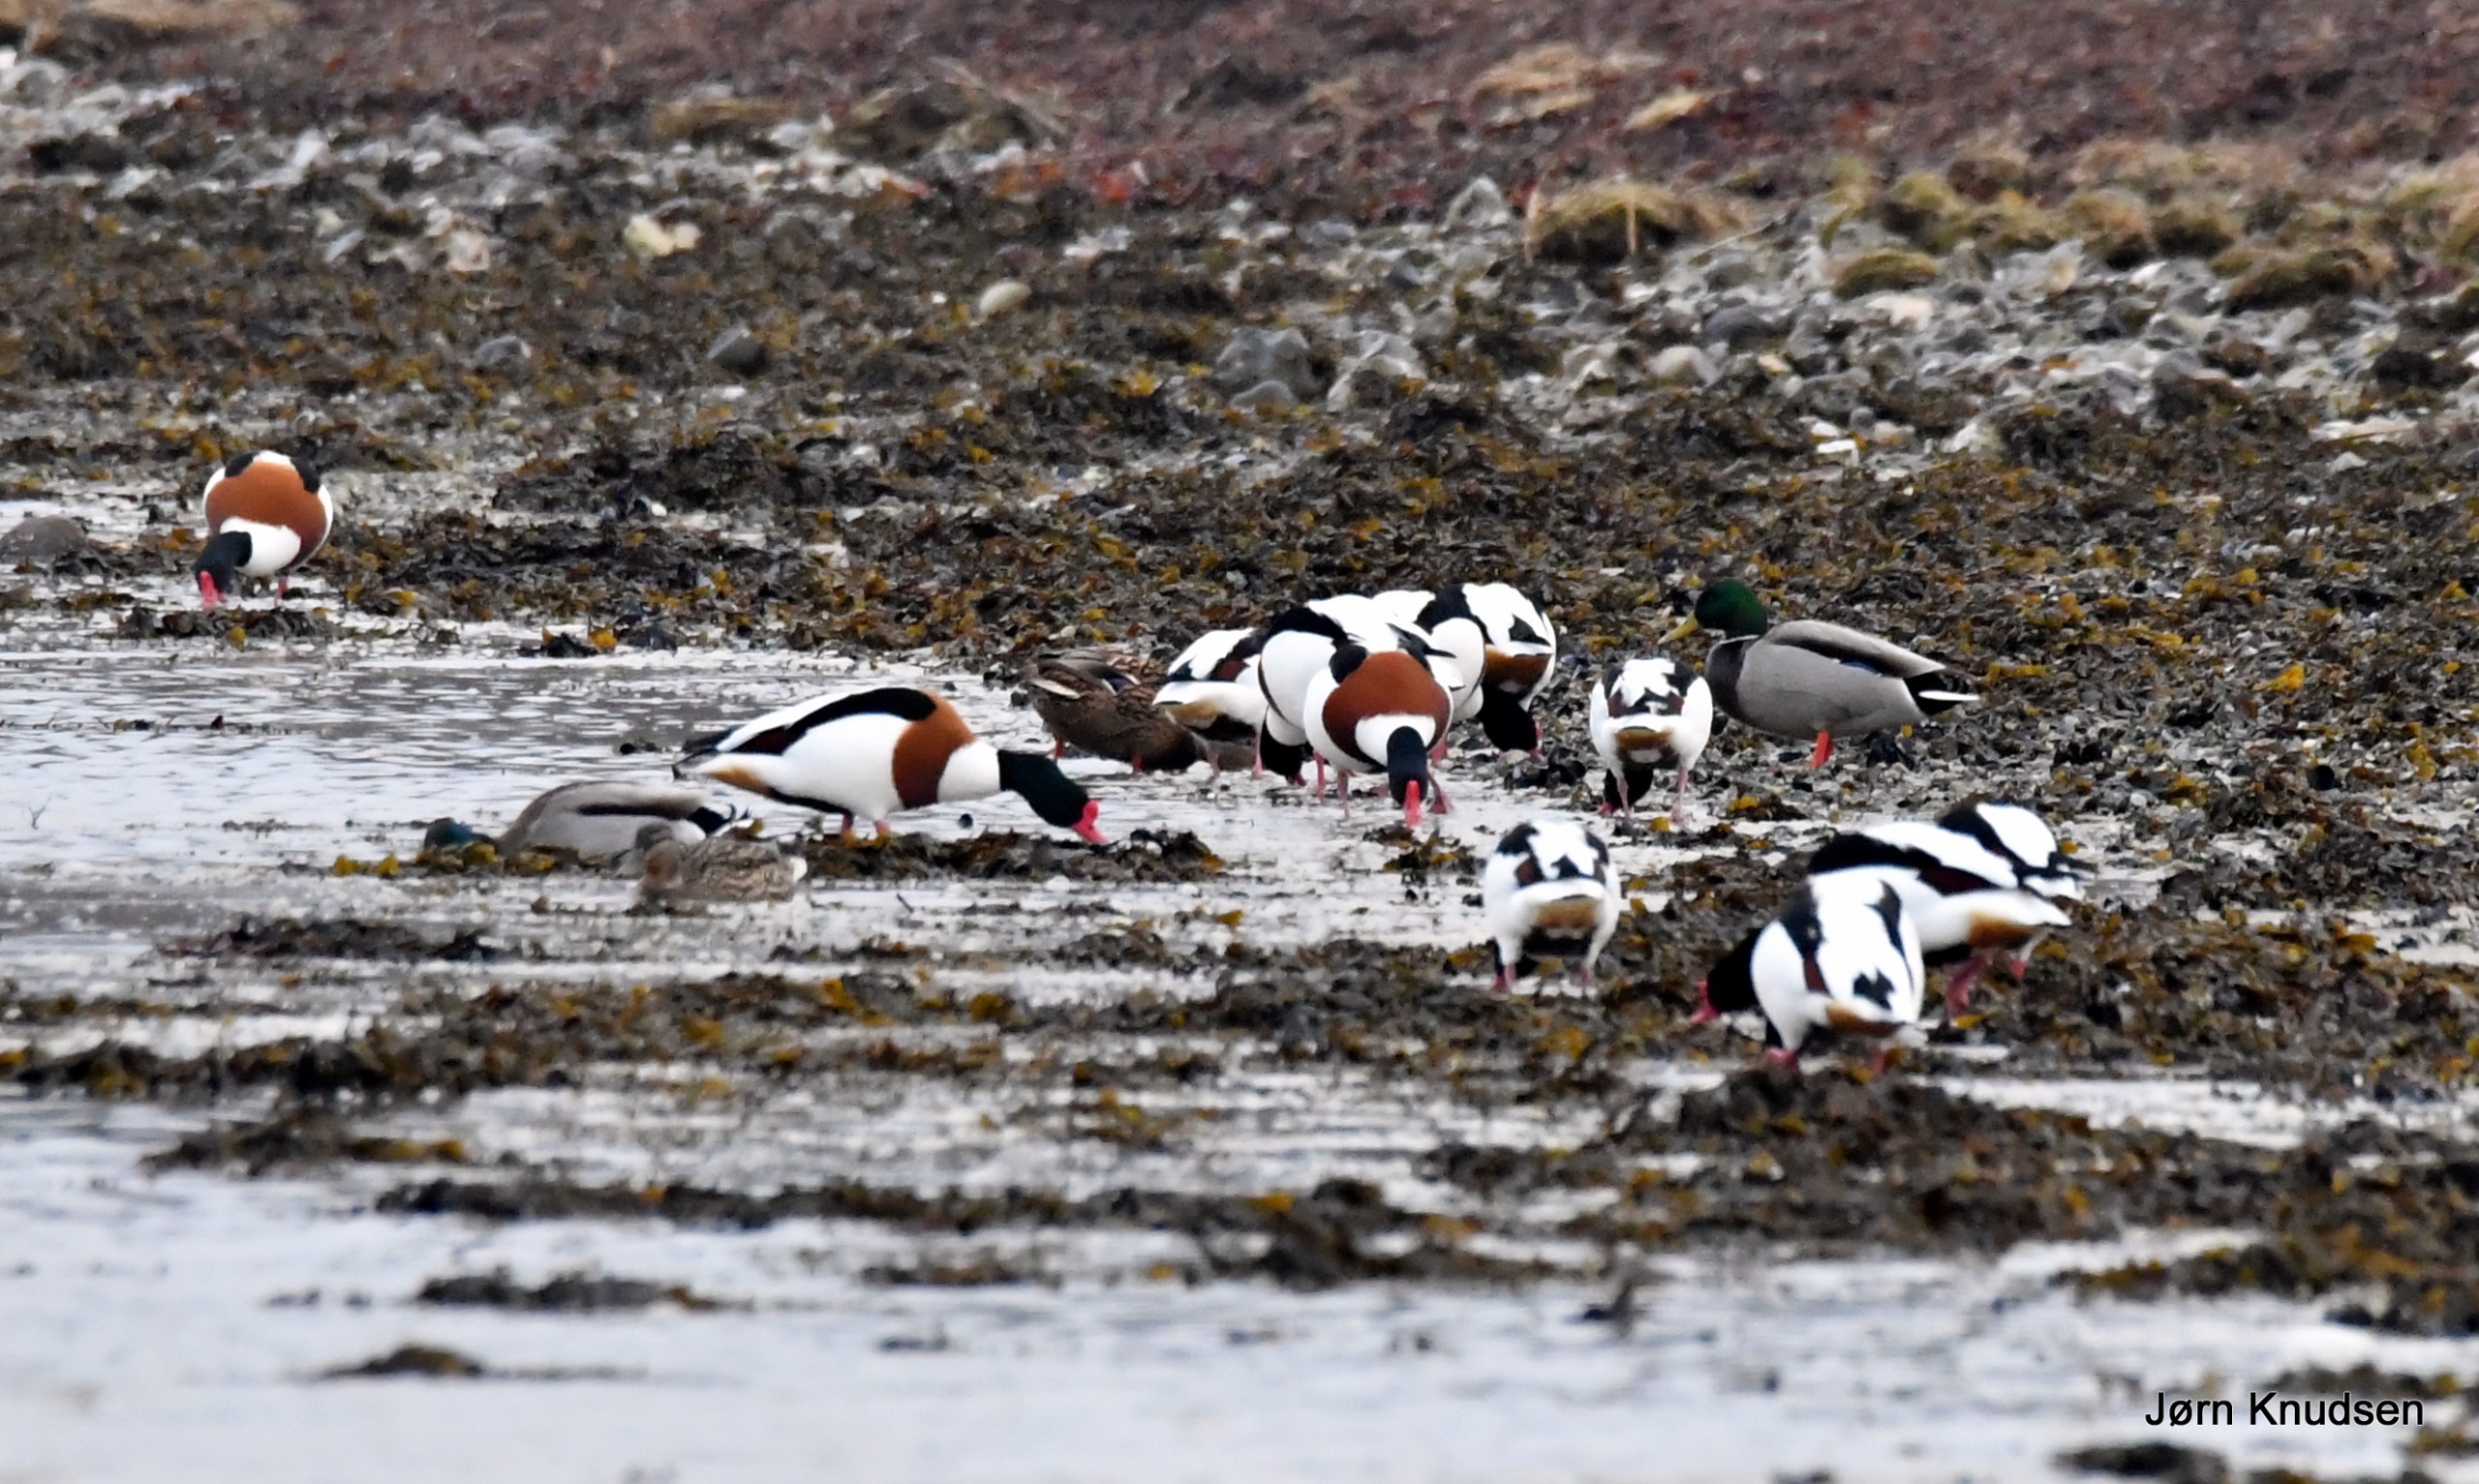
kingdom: Animalia
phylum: Chordata
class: Aves
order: Anseriformes
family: Anatidae
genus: Anas
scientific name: Anas platyrhynchos
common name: Gråand
